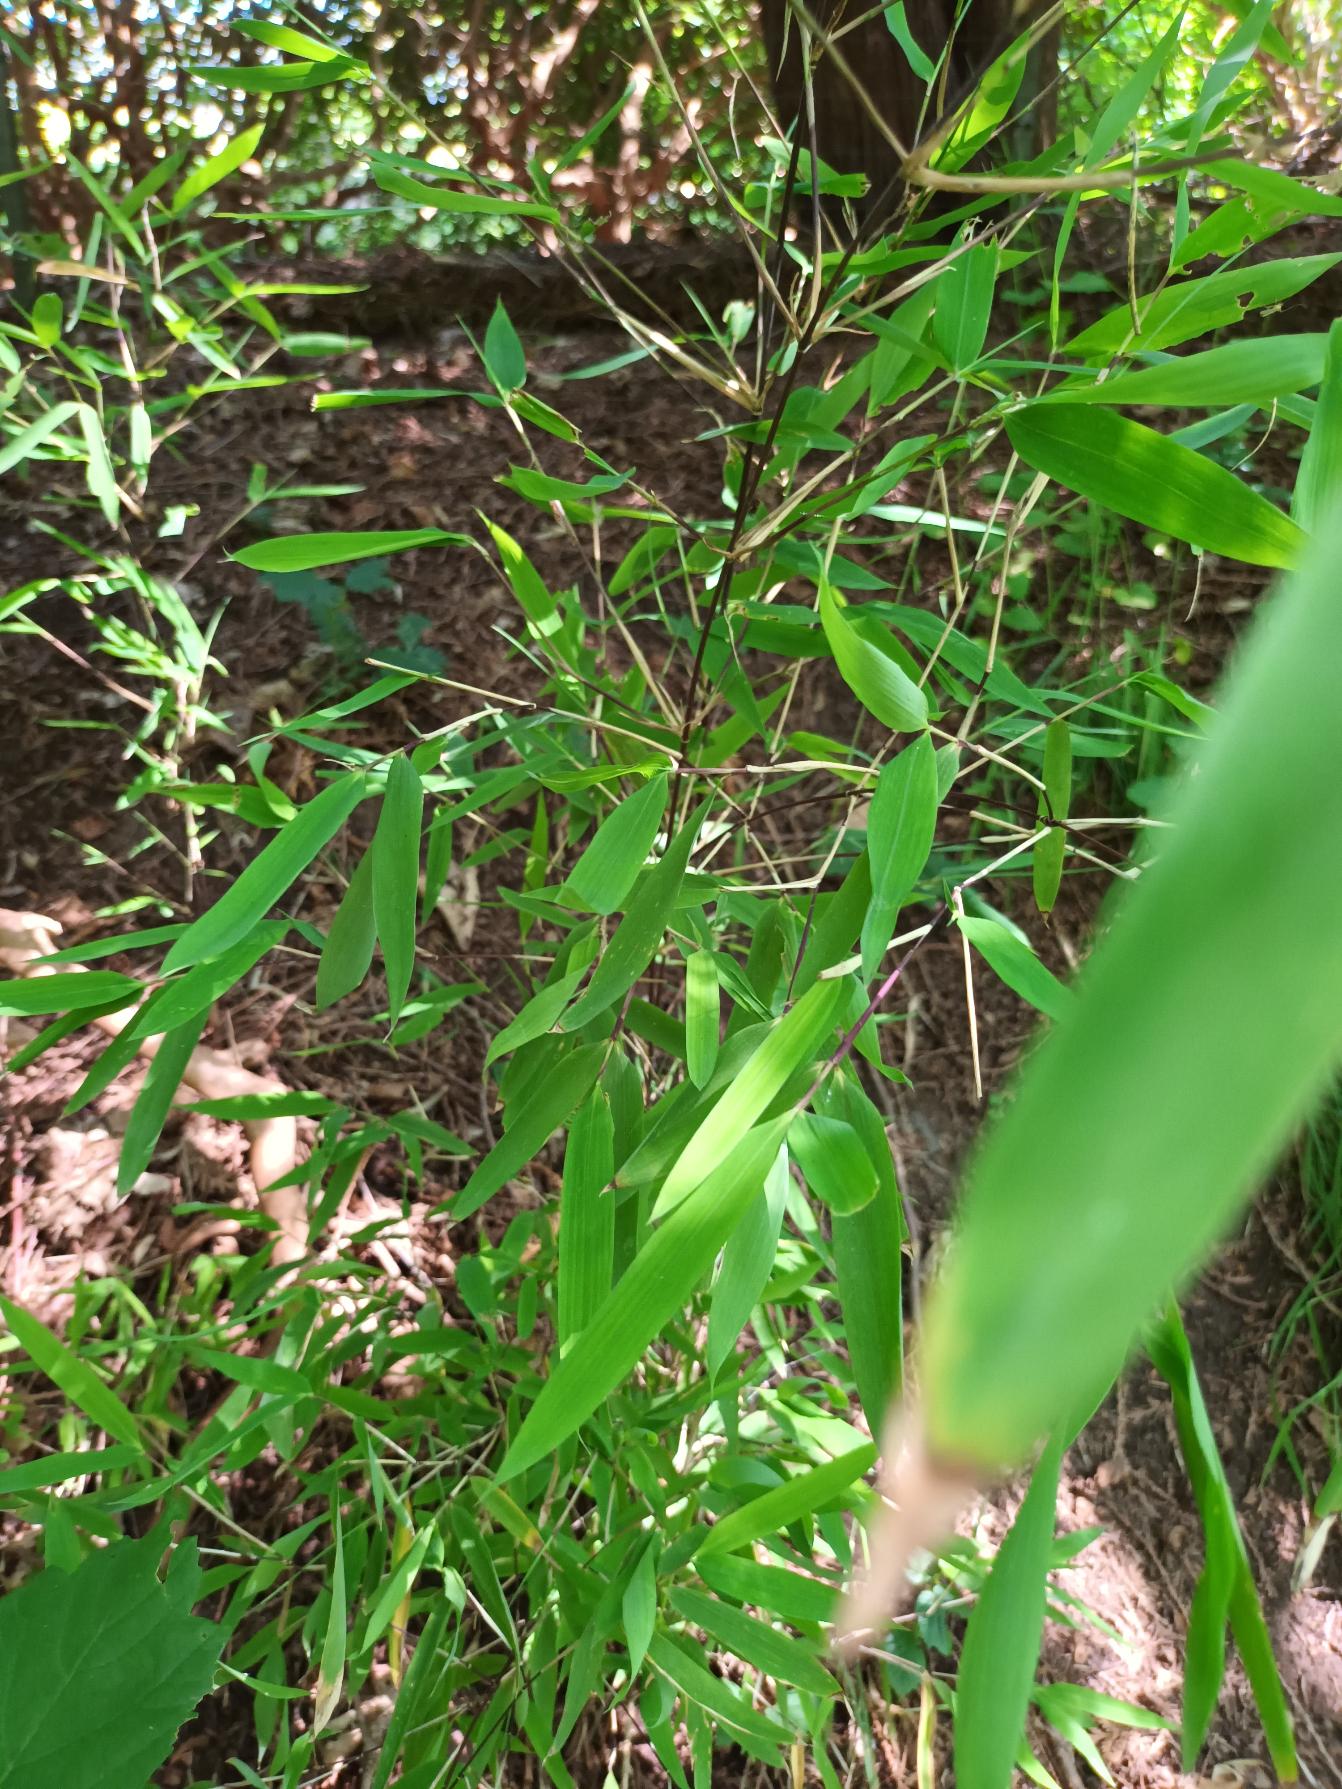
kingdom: Plantae
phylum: Tracheophyta
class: Liliopsida
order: Poales
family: Poaceae
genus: Fargesia
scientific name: Fargesia spathacea
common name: Sort bambus
